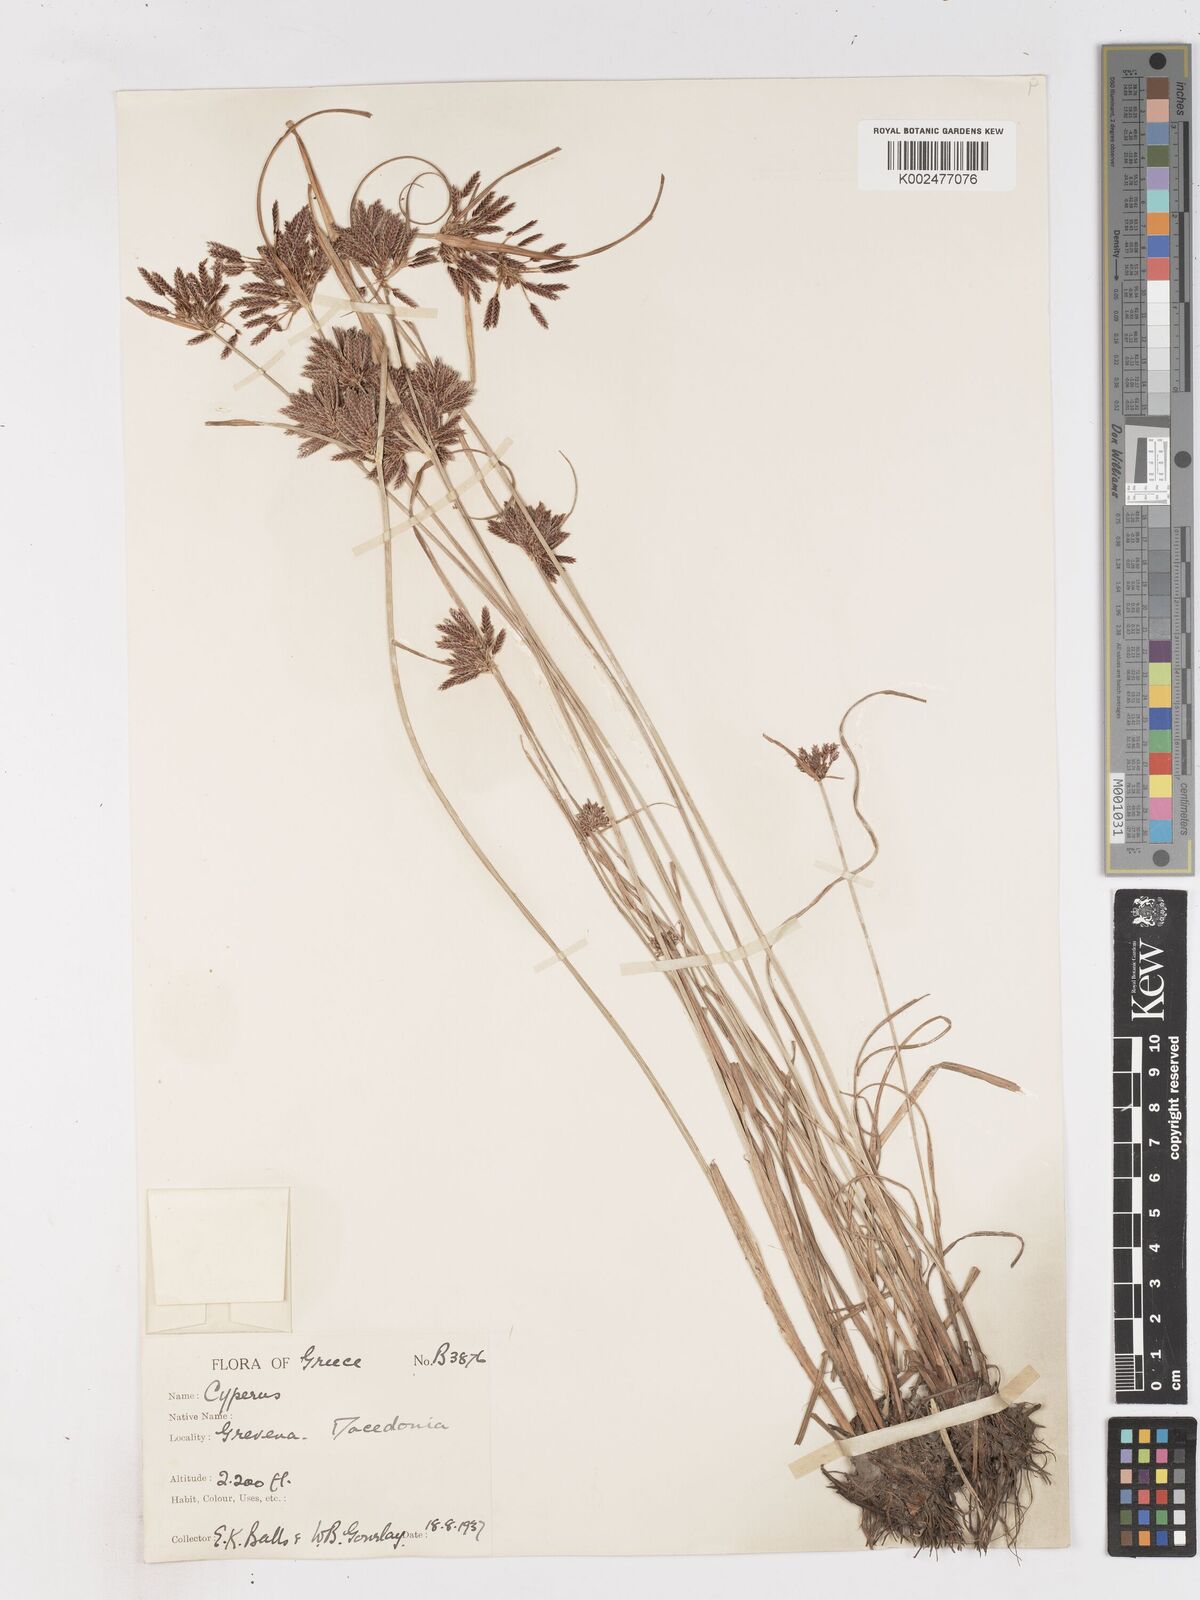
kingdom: Plantae
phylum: Tracheophyta
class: Liliopsida
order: Poales
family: Cyperaceae
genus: Cyperus
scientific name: Cyperus glaber
